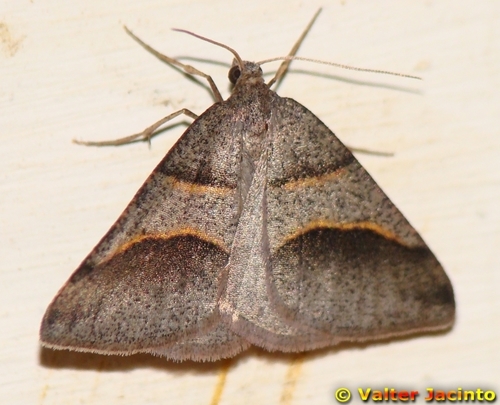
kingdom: Animalia
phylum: Arthropoda
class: Insecta
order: Lepidoptera
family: Pterophoridae
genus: Pterophorus
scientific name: Pterophorus Petrophora convergata
